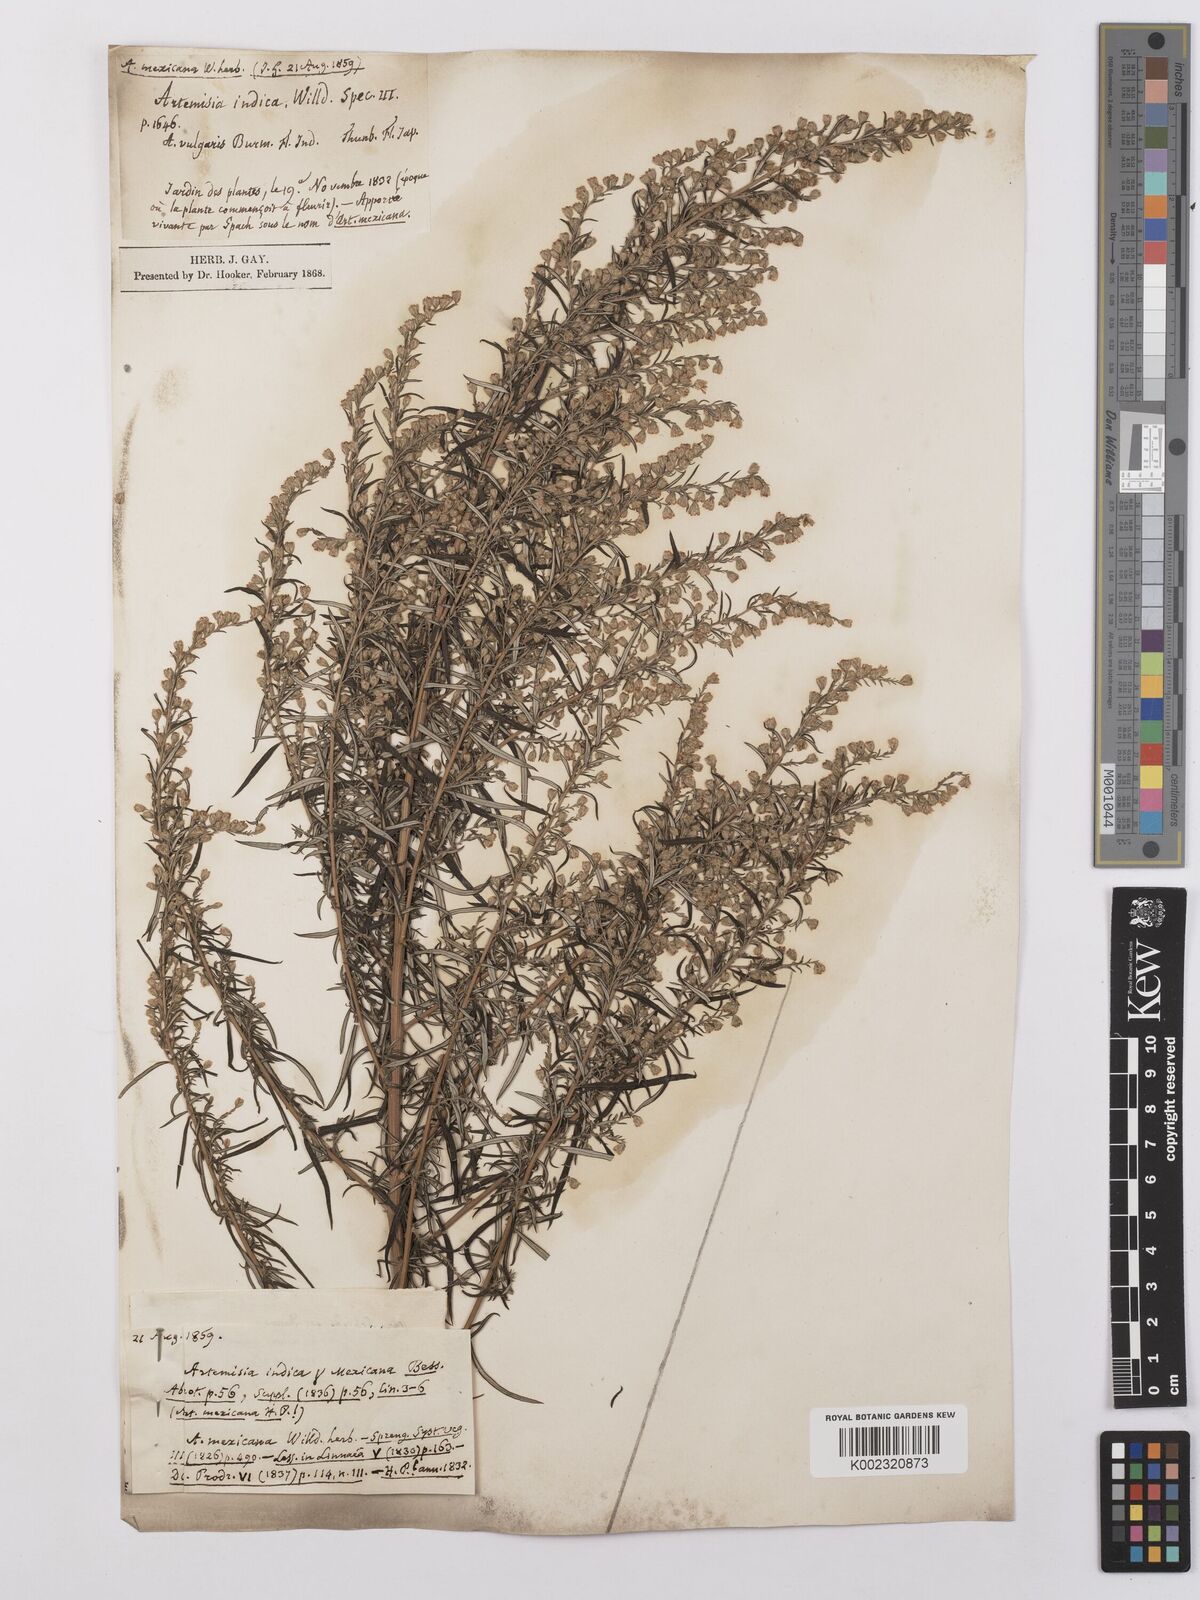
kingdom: Plantae
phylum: Tracheophyta
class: Magnoliopsida
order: Asterales
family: Asteraceae
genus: Artemisia
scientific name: Artemisia ludoviciana
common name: Western mugwort
